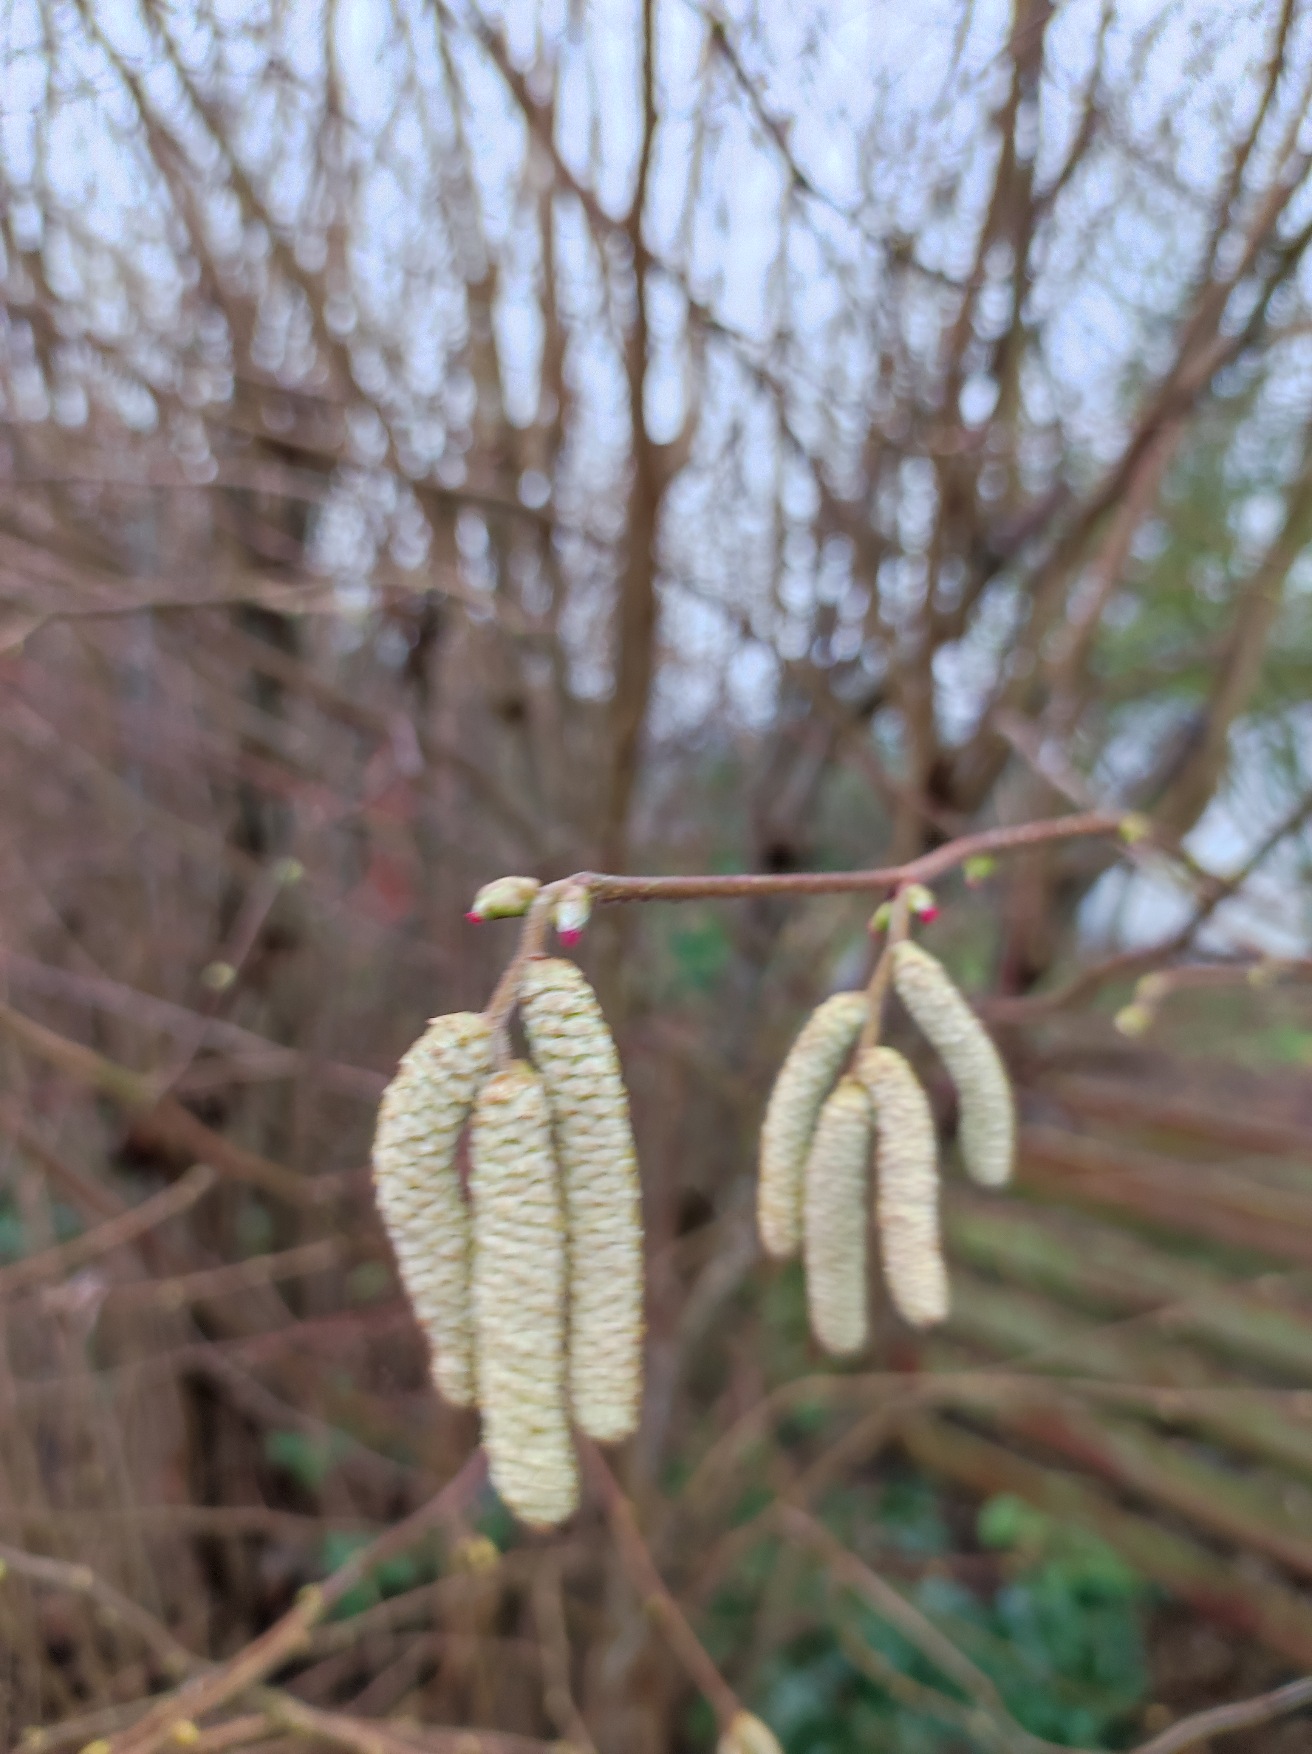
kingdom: Plantae
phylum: Tracheophyta
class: Magnoliopsida
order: Fagales
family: Betulaceae
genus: Corylus
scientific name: Corylus avellana
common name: Hassel
